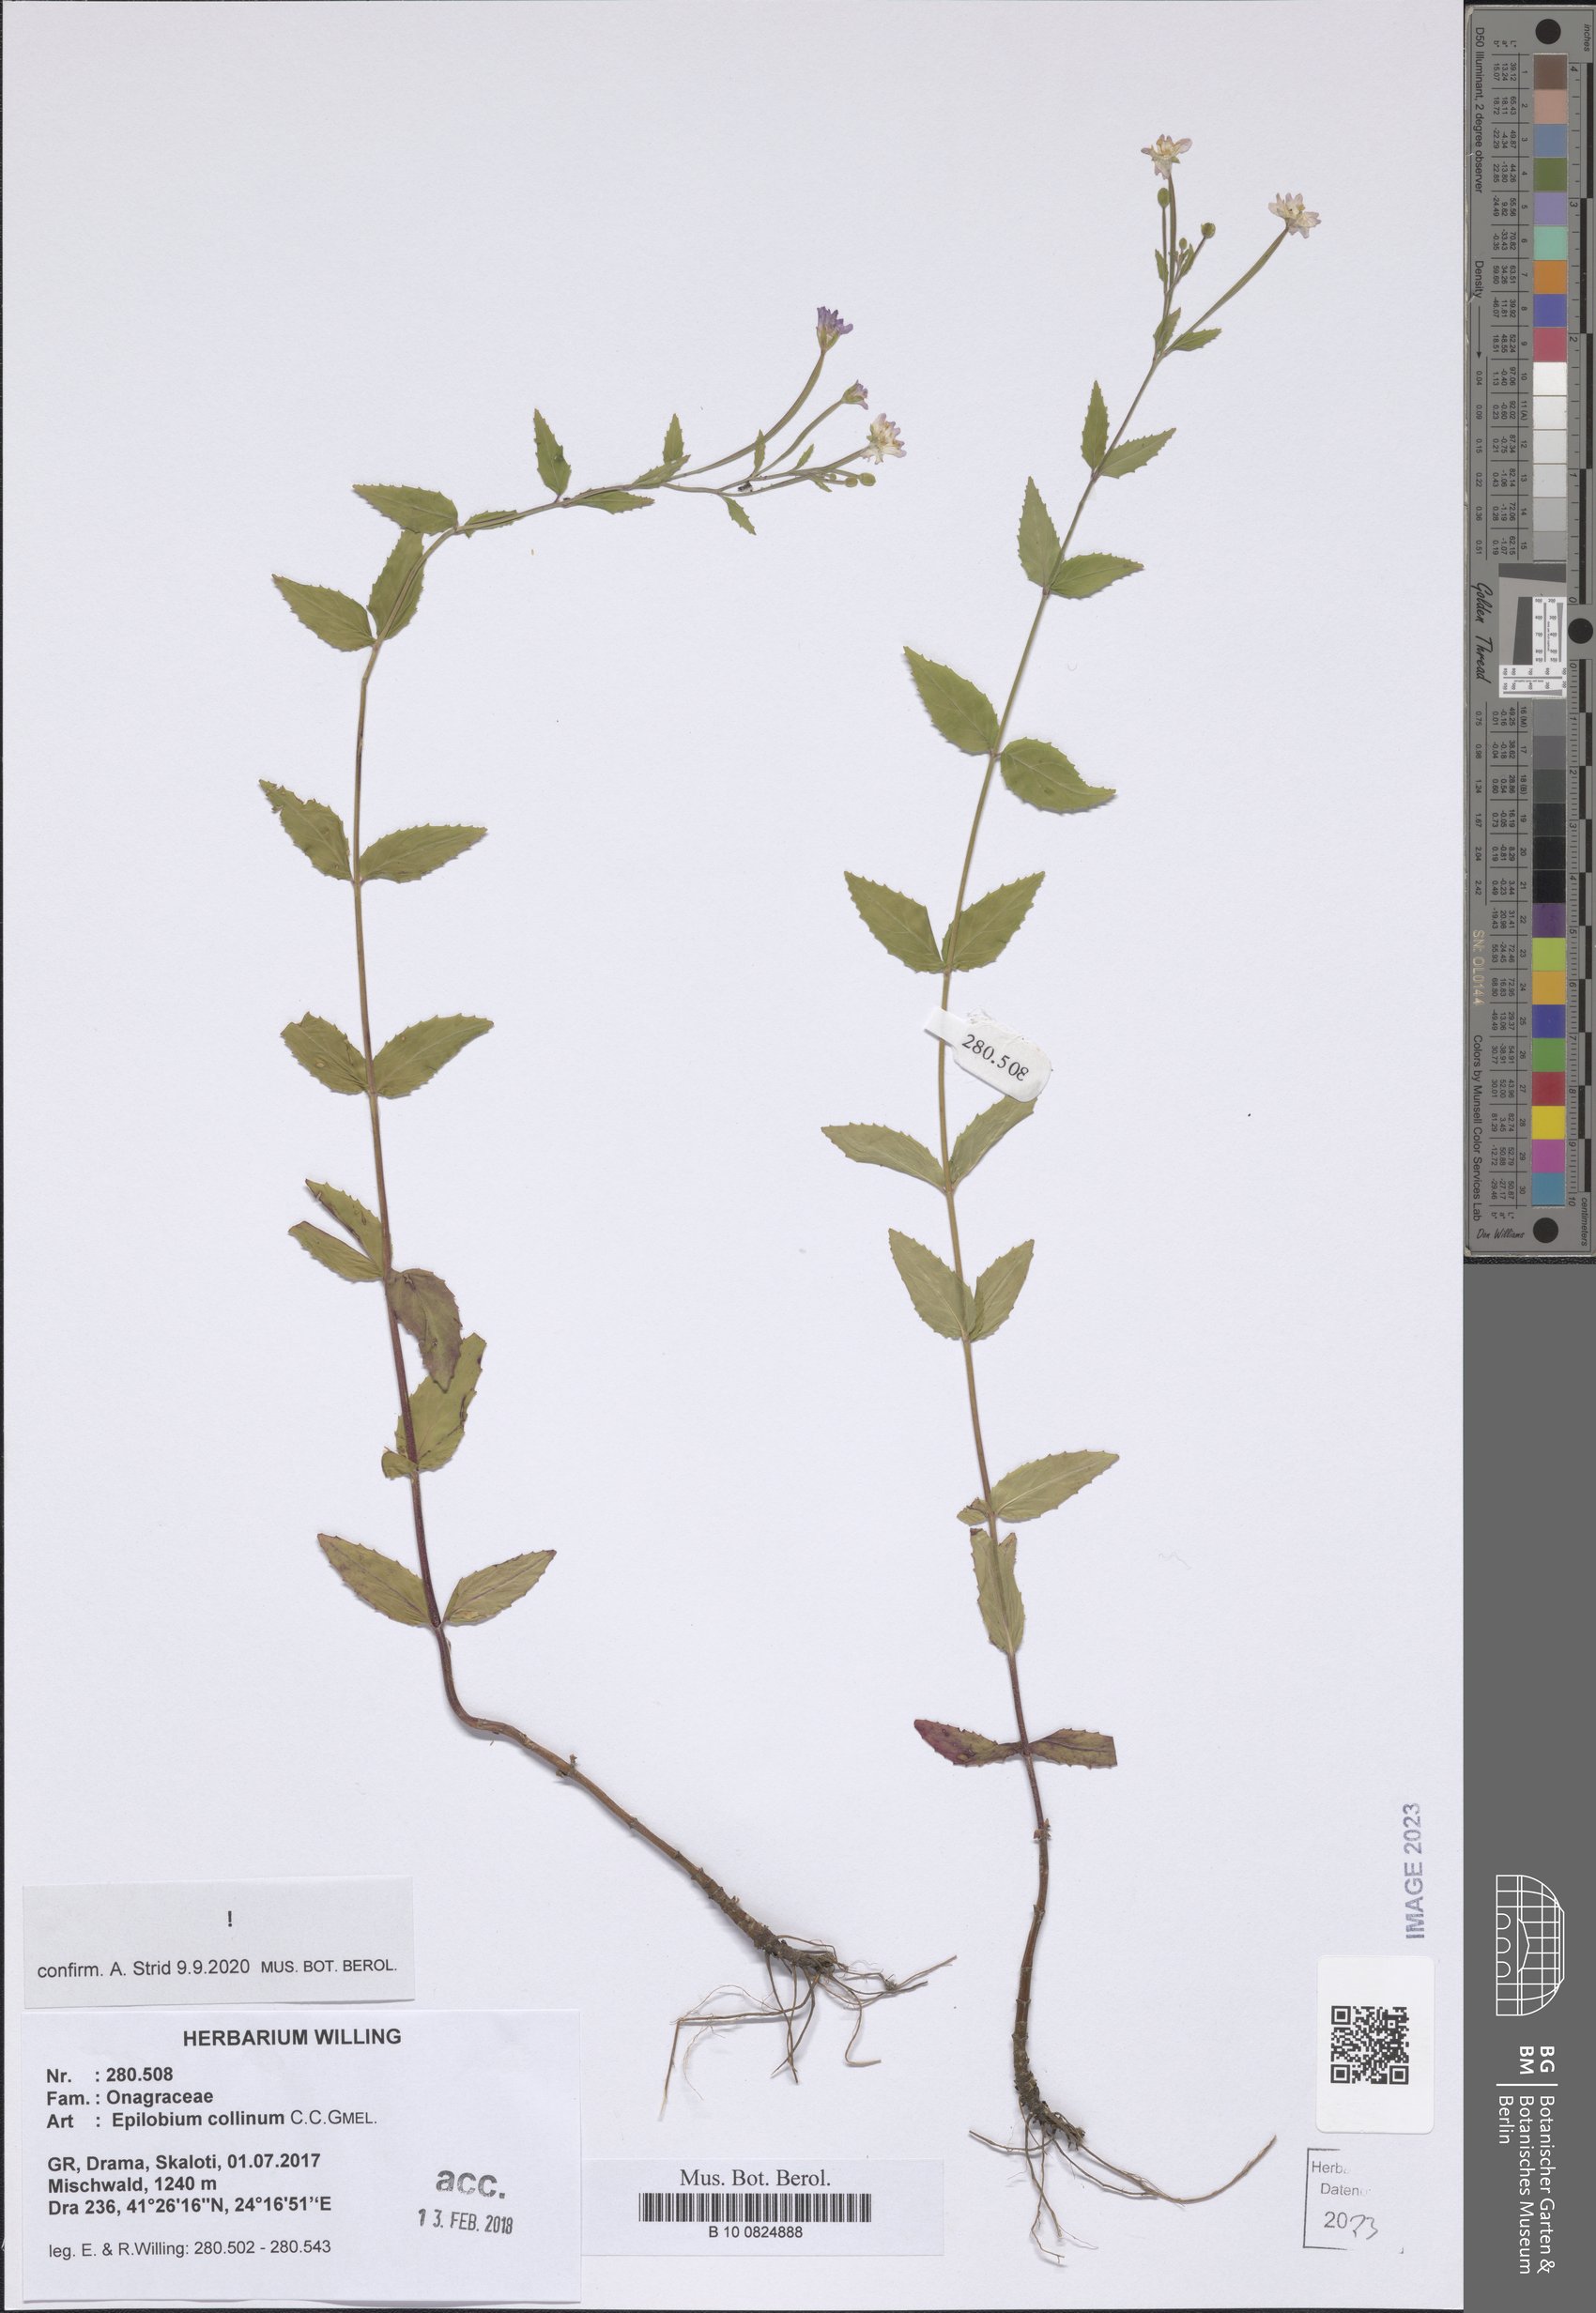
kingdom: Plantae
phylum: Tracheophyta
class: Magnoliopsida
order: Myrtales
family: Onagraceae
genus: Epilobium
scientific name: Epilobium collinum
